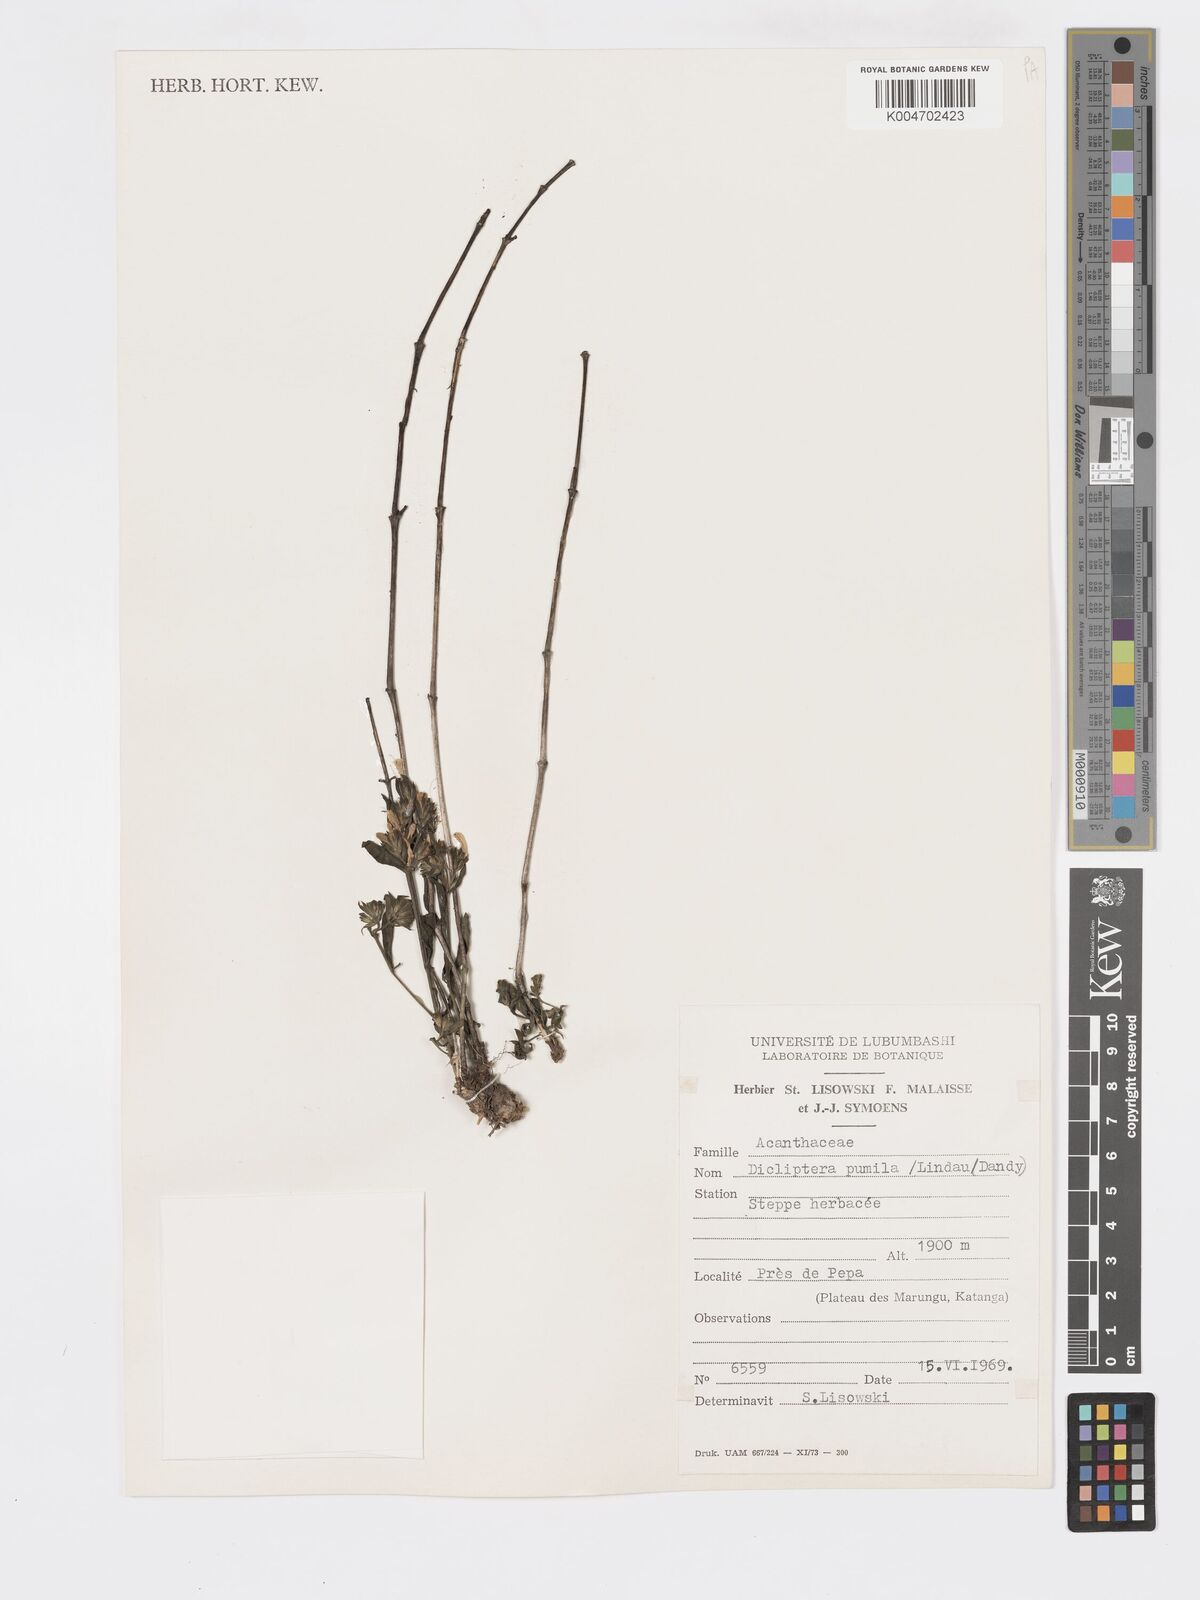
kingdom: Plantae
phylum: Tracheophyta
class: Magnoliopsida
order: Lamiales
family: Acanthaceae
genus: Dicliptera
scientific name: Dicliptera pumila
